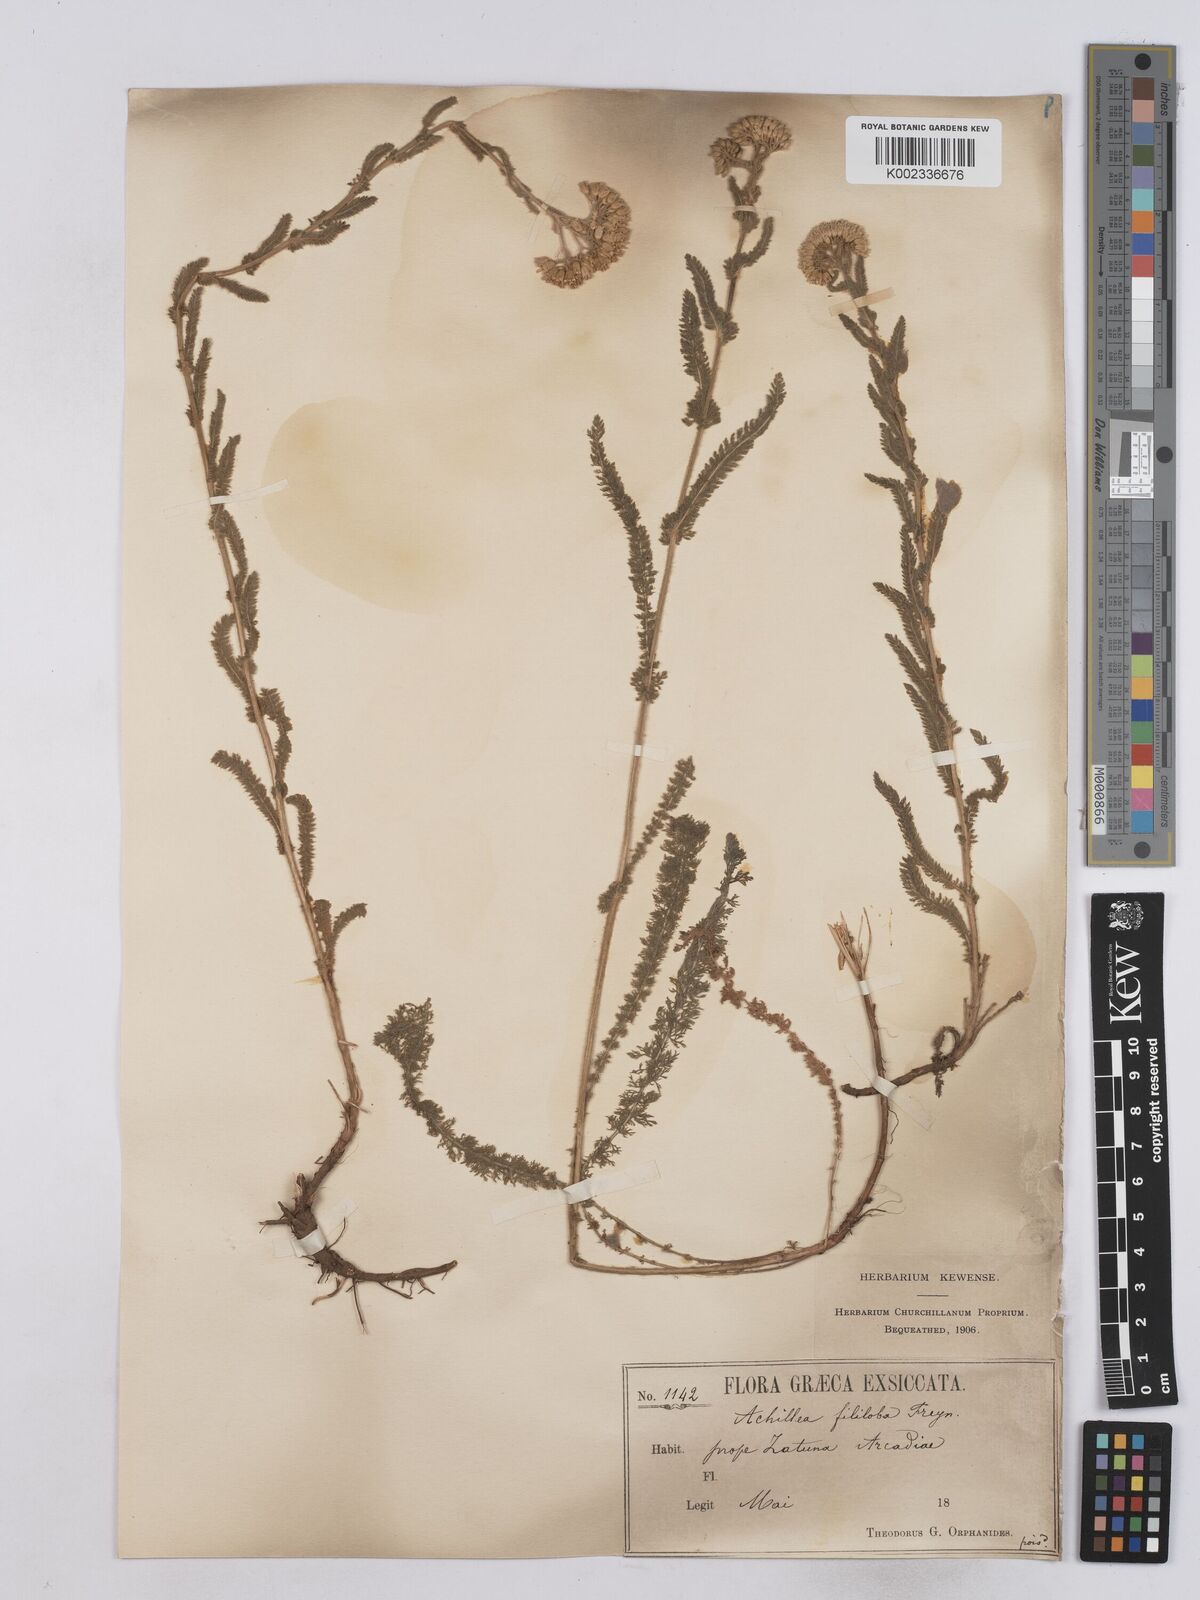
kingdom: Plantae
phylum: Tracheophyta
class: Magnoliopsida
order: Asterales
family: Asteraceae
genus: Achillea
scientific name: Achillea setacea
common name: Bristly yarrow
